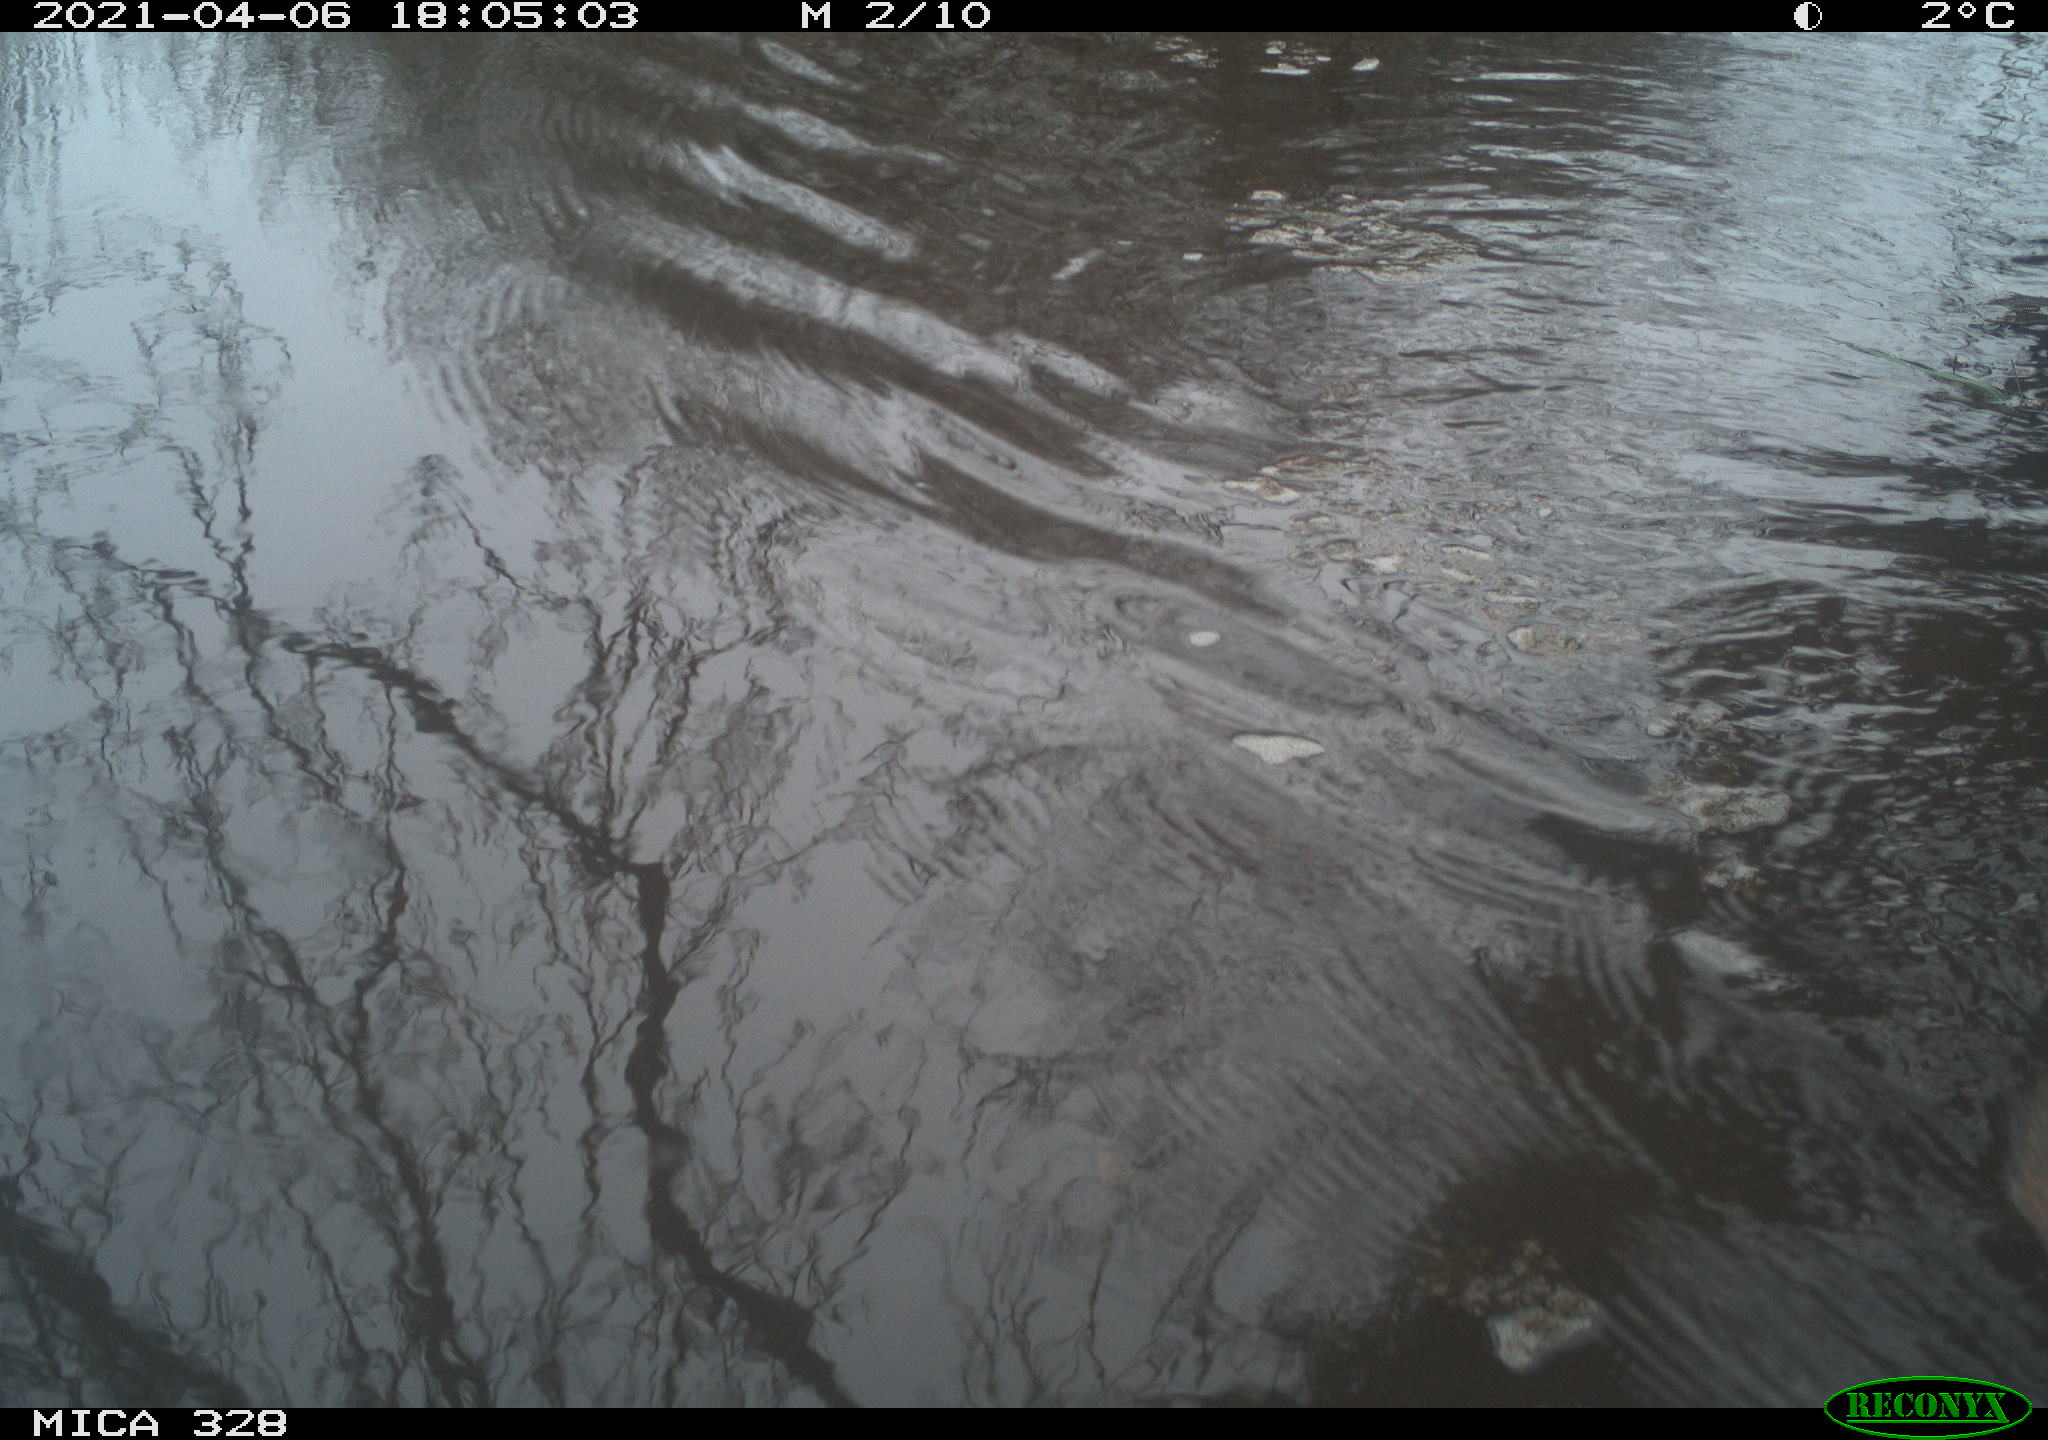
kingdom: Animalia
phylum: Chordata
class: Mammalia
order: Rodentia
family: Cricetidae
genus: Ondatra
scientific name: Ondatra zibethicus
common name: Muskrat
